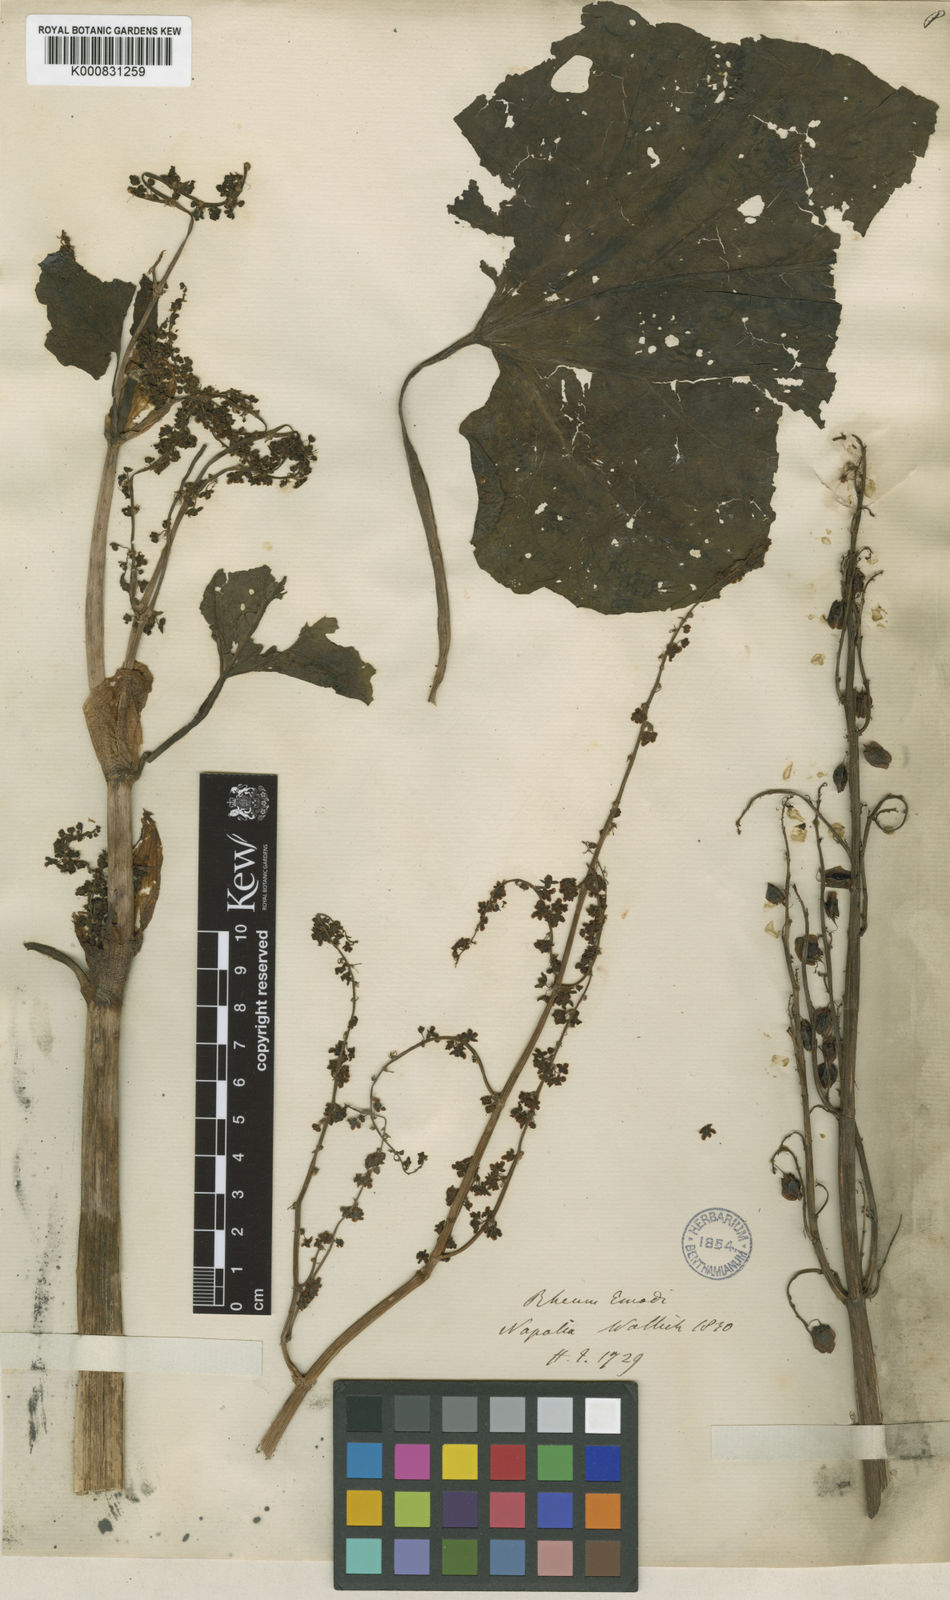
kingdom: Plantae
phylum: Tracheophyta
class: Magnoliopsida
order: Caryophyllales
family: Polygonaceae
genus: Rheum
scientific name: Rheum
